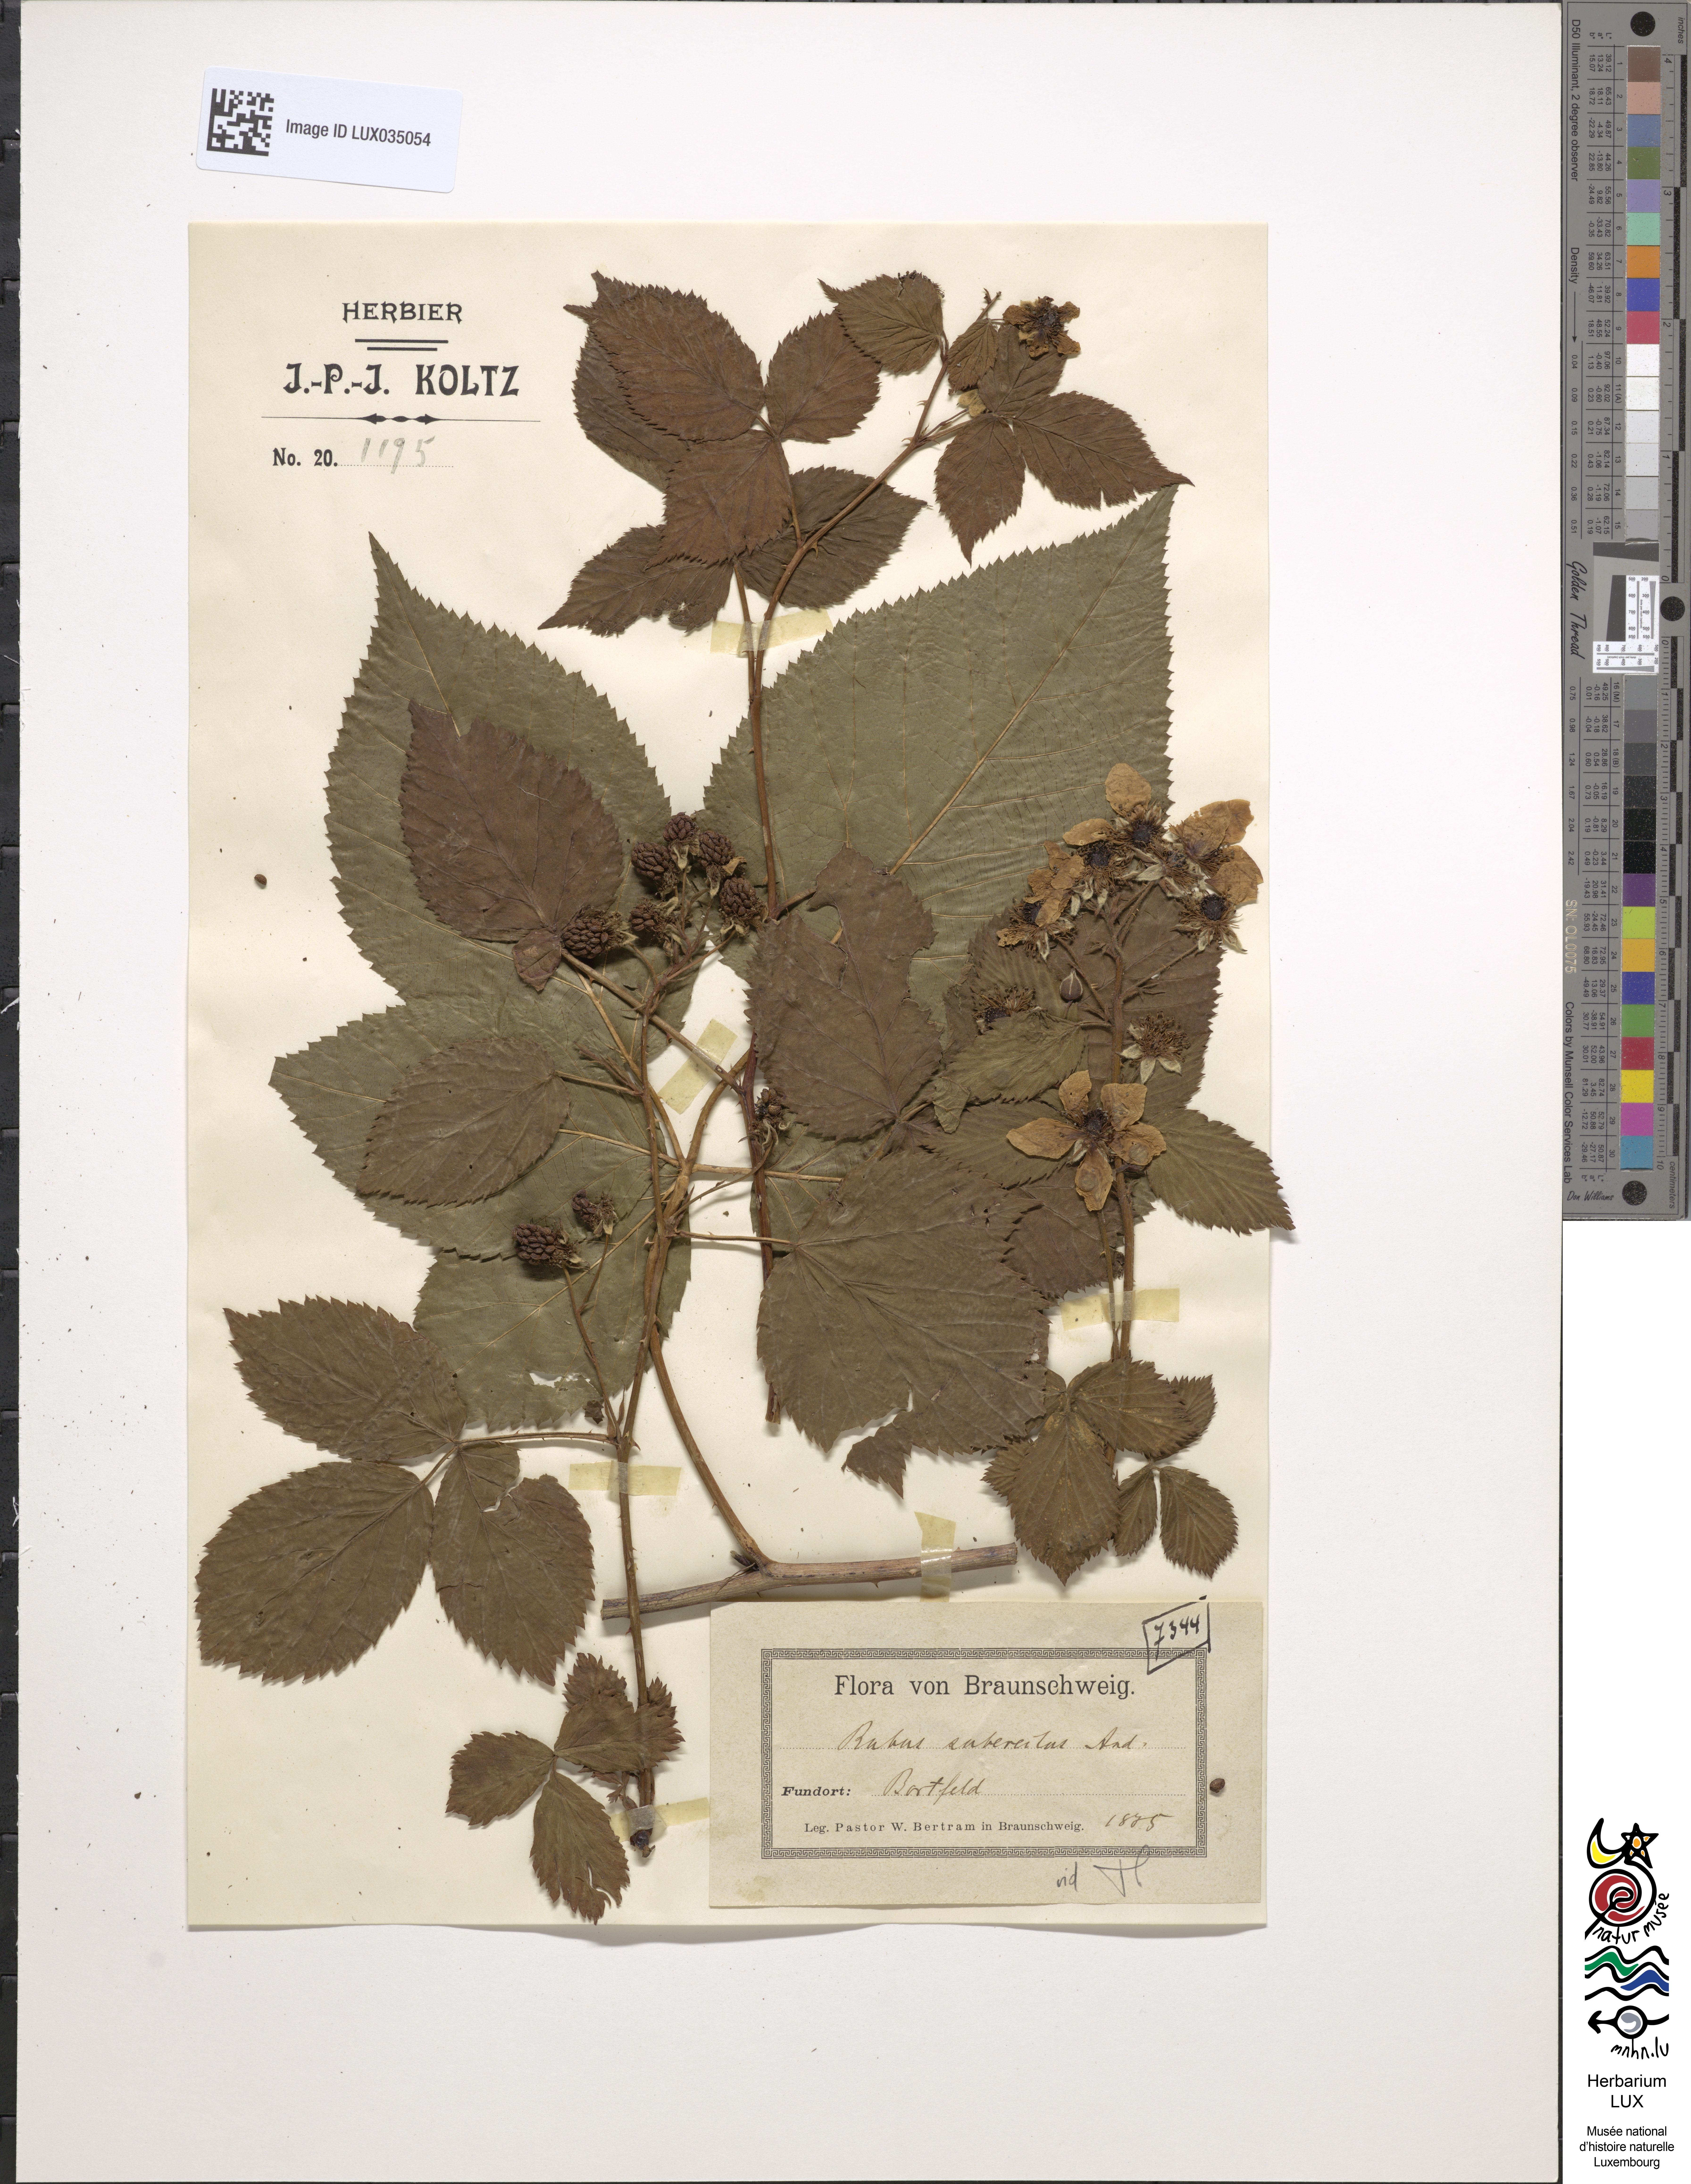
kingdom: Plantae
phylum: Tracheophyta
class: Magnoliopsida
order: Rosales
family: Rosaceae
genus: Rubus
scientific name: Rubus polonicus
